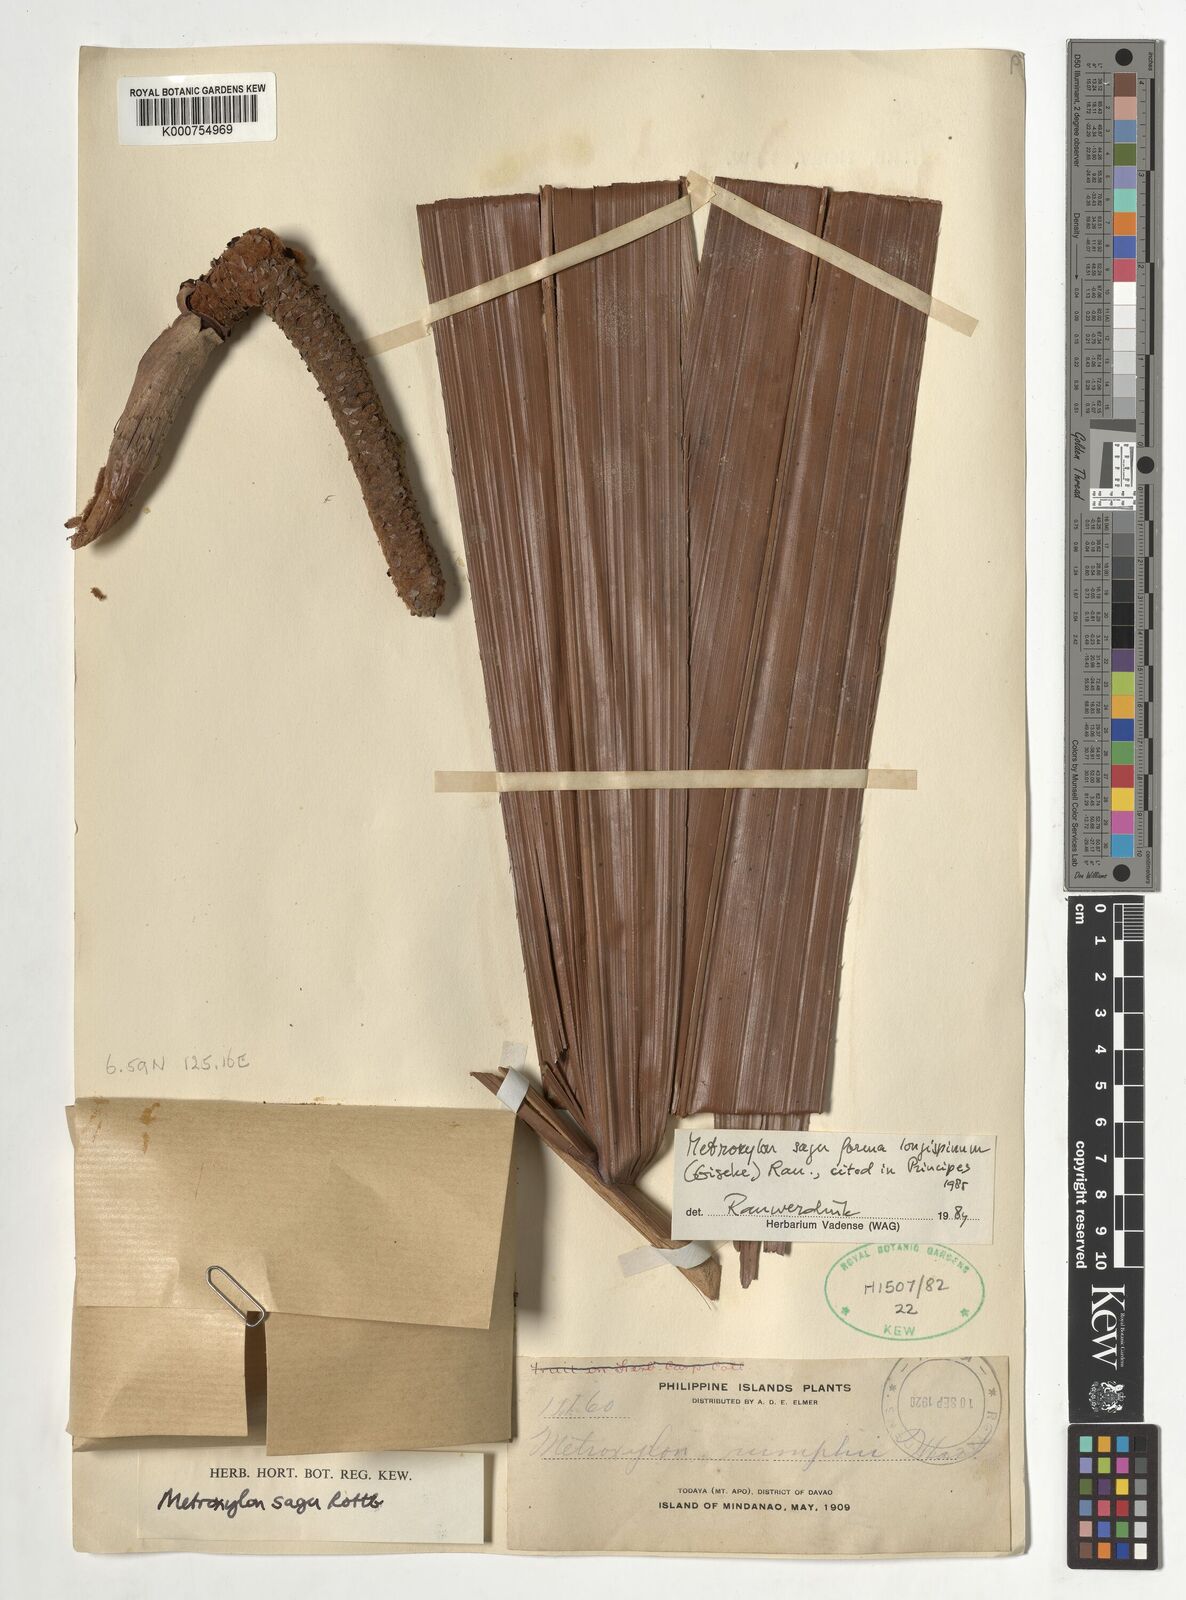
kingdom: Plantae
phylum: Tracheophyta
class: Liliopsida
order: Arecales
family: Arecaceae
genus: Metroxylon
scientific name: Metroxylon sagu
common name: Sago palm
